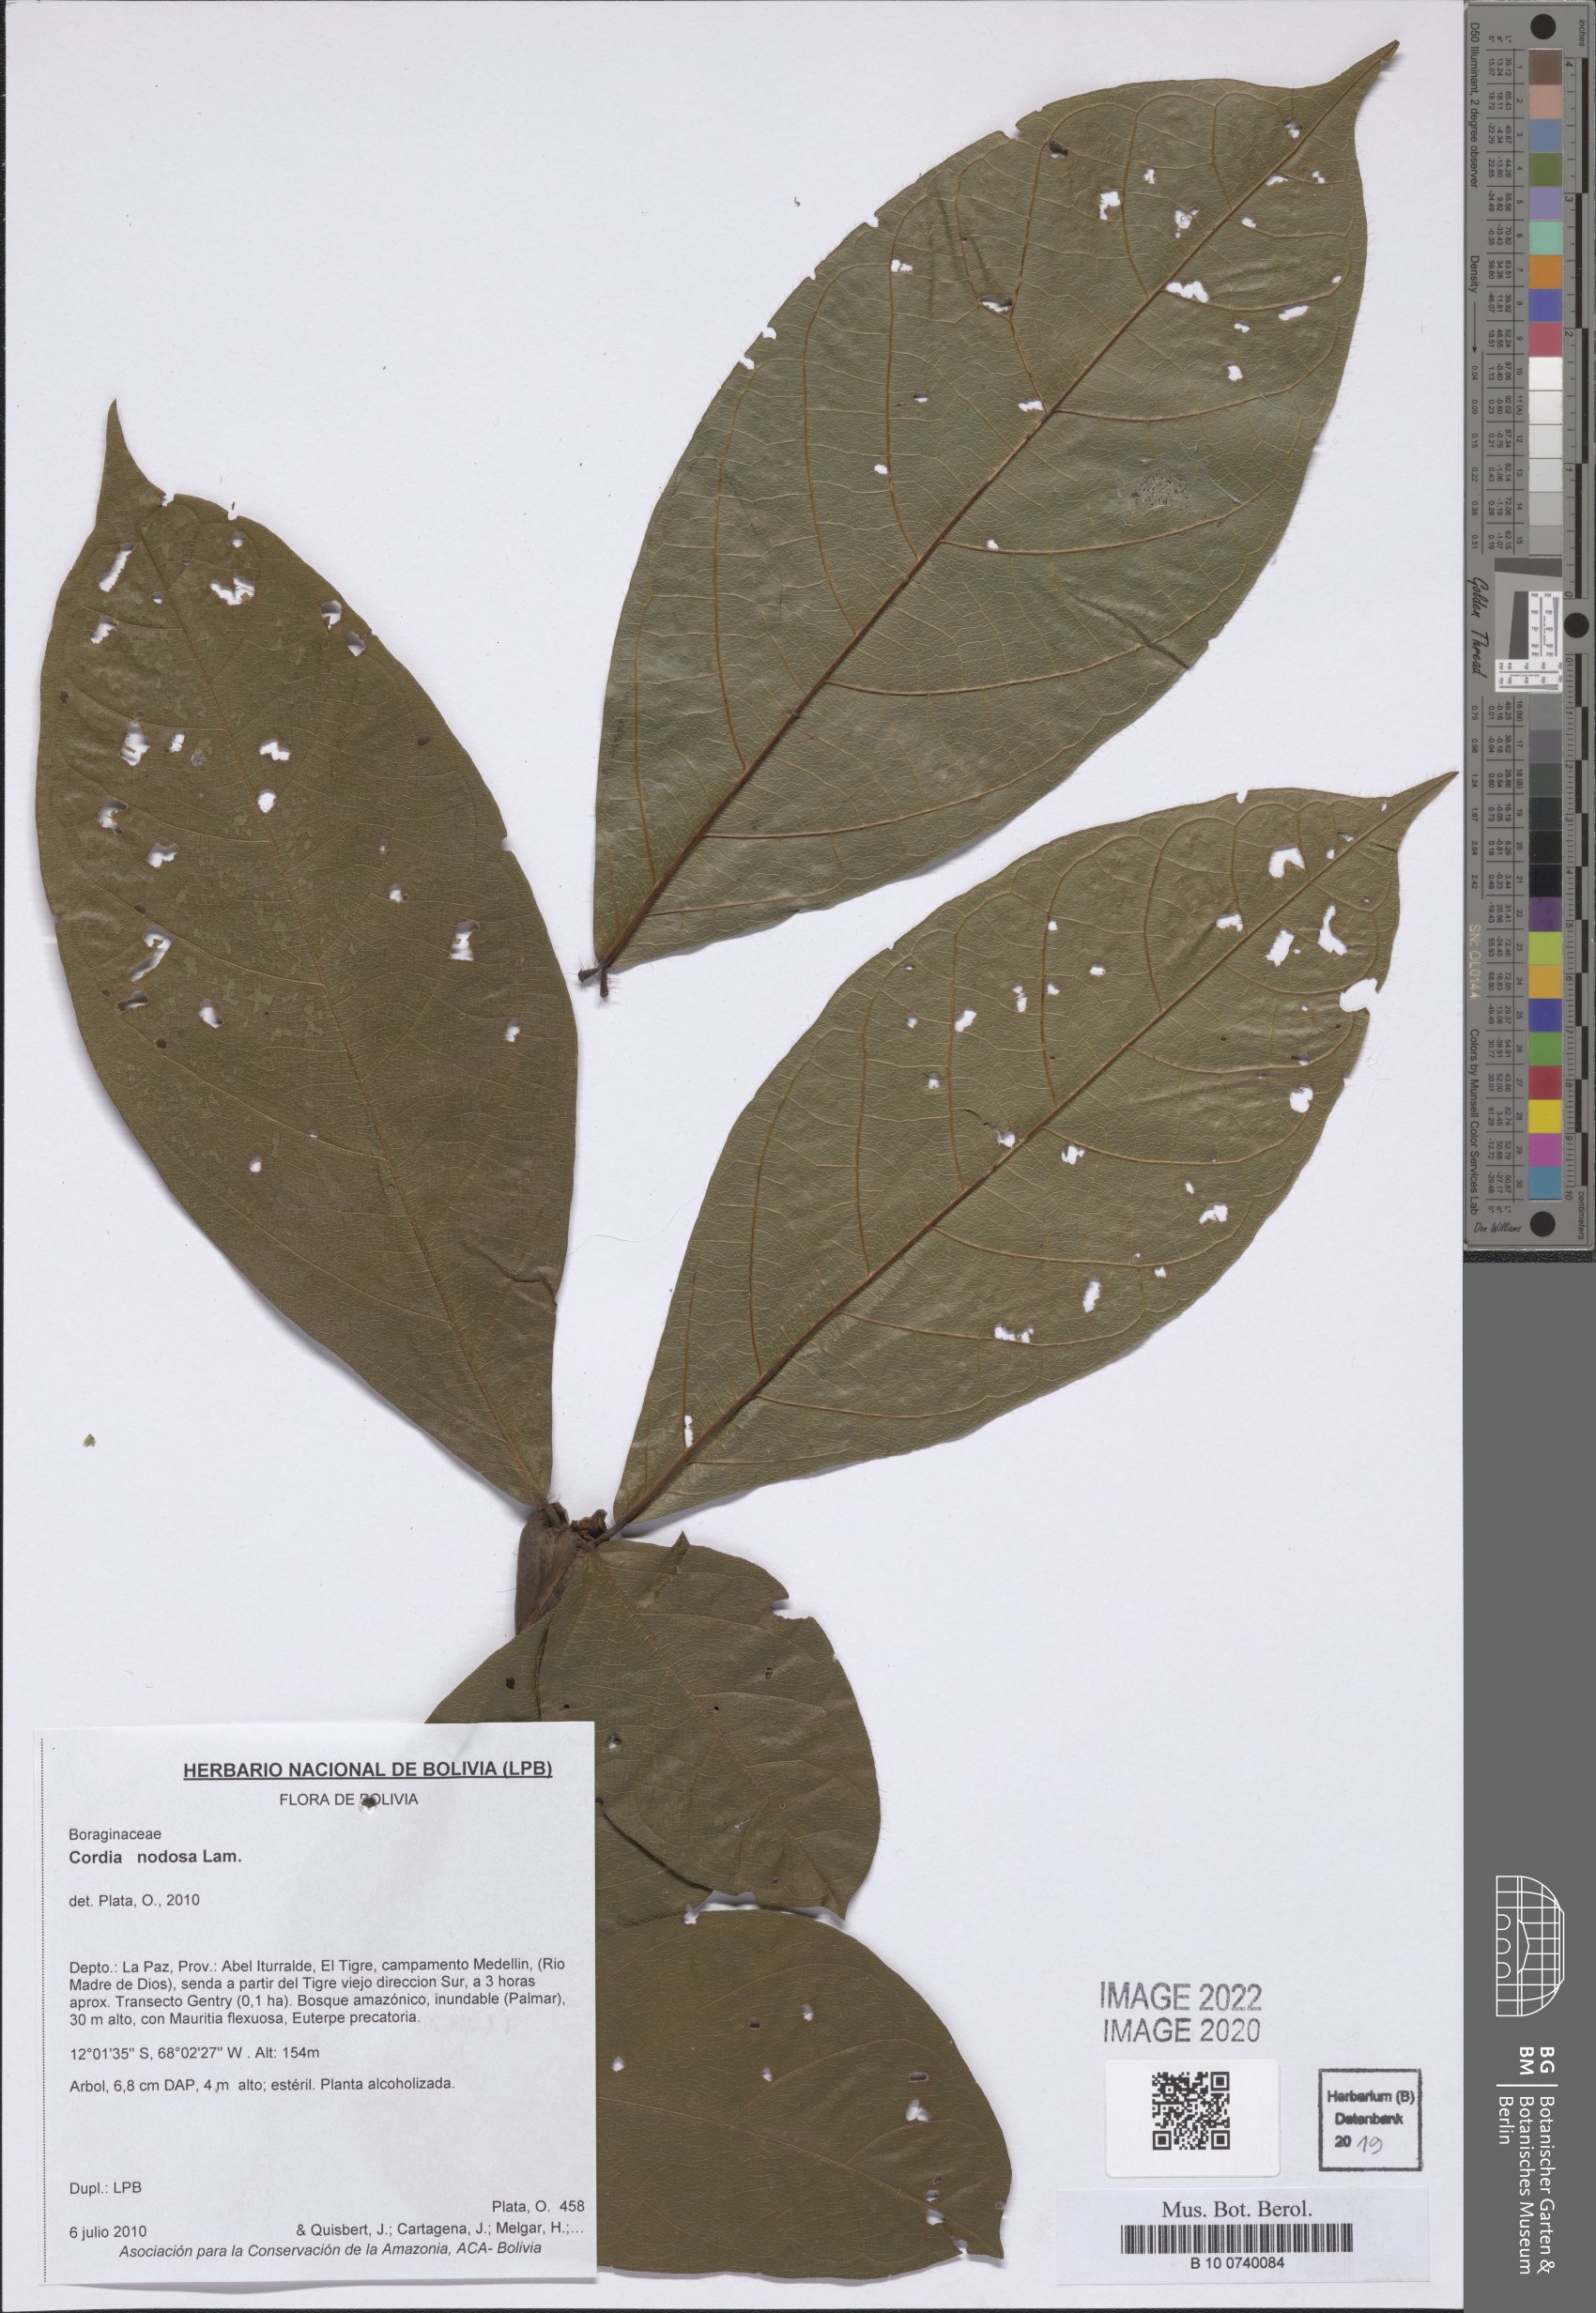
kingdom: Plantae
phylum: Tracheophyta
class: Magnoliopsida
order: Boraginales
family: Cordiaceae
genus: Cordia
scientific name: Cordia nodosa
